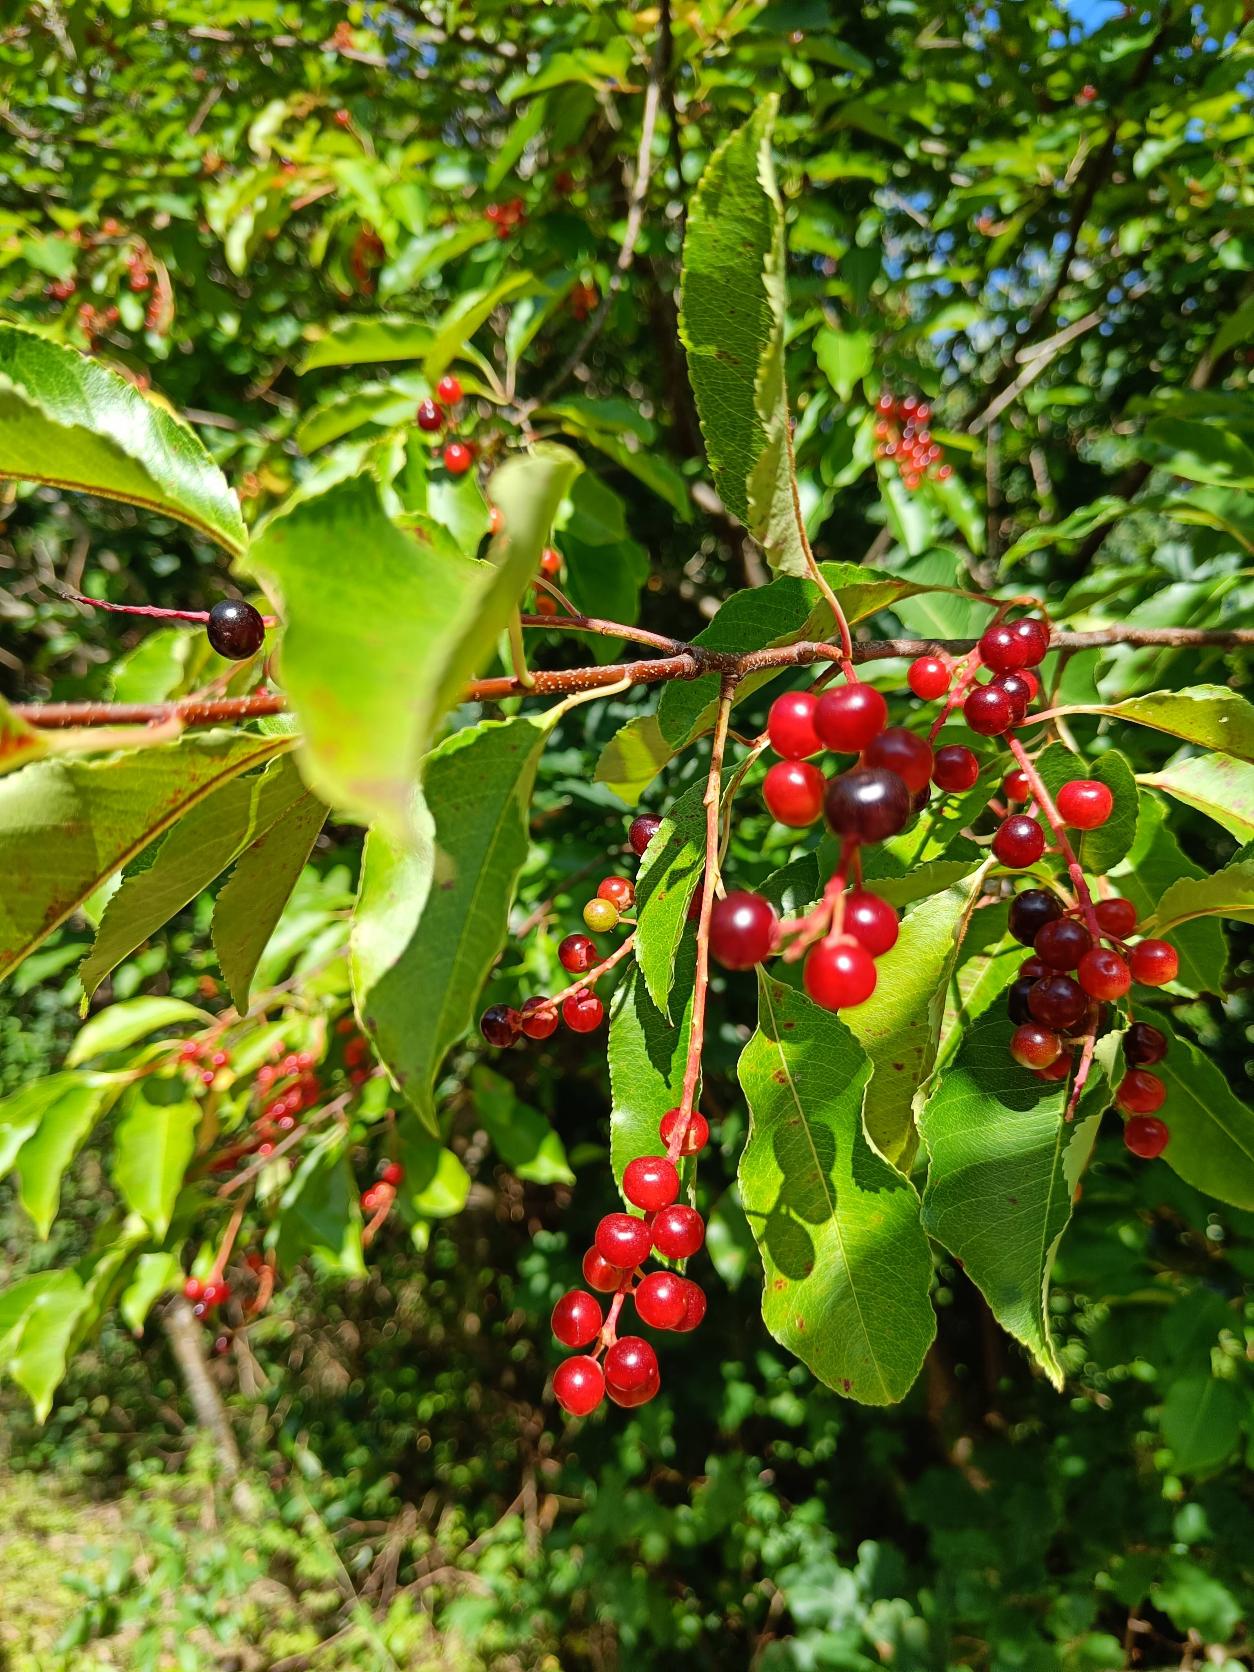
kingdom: Plantae
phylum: Tracheophyta
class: Magnoliopsida
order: Rosales
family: Rosaceae
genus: Prunus
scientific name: Prunus serotina
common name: Glansbladet hæg
